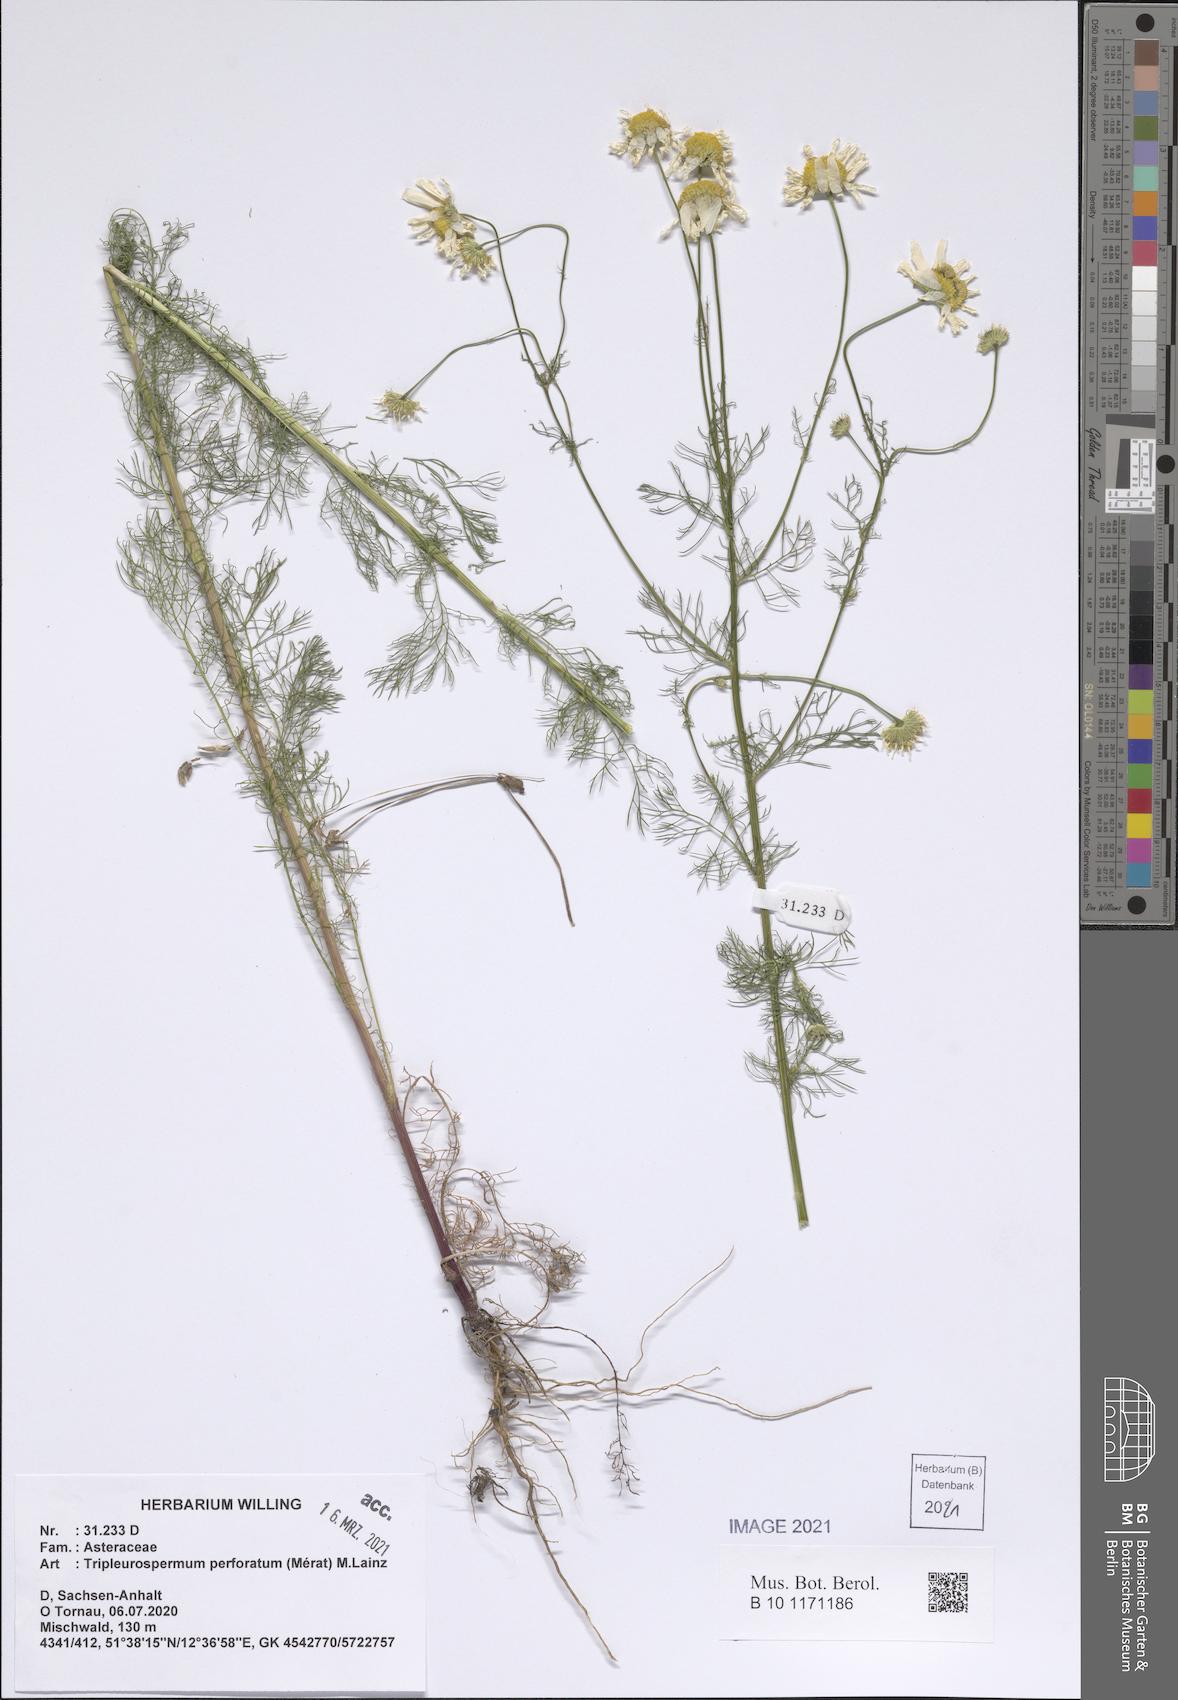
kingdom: Plantae
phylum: Tracheophyta
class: Magnoliopsida
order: Asterales
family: Asteraceae
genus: Tripleurospermum
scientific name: Tripleurospermum inodorum
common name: Scentless mayweed
